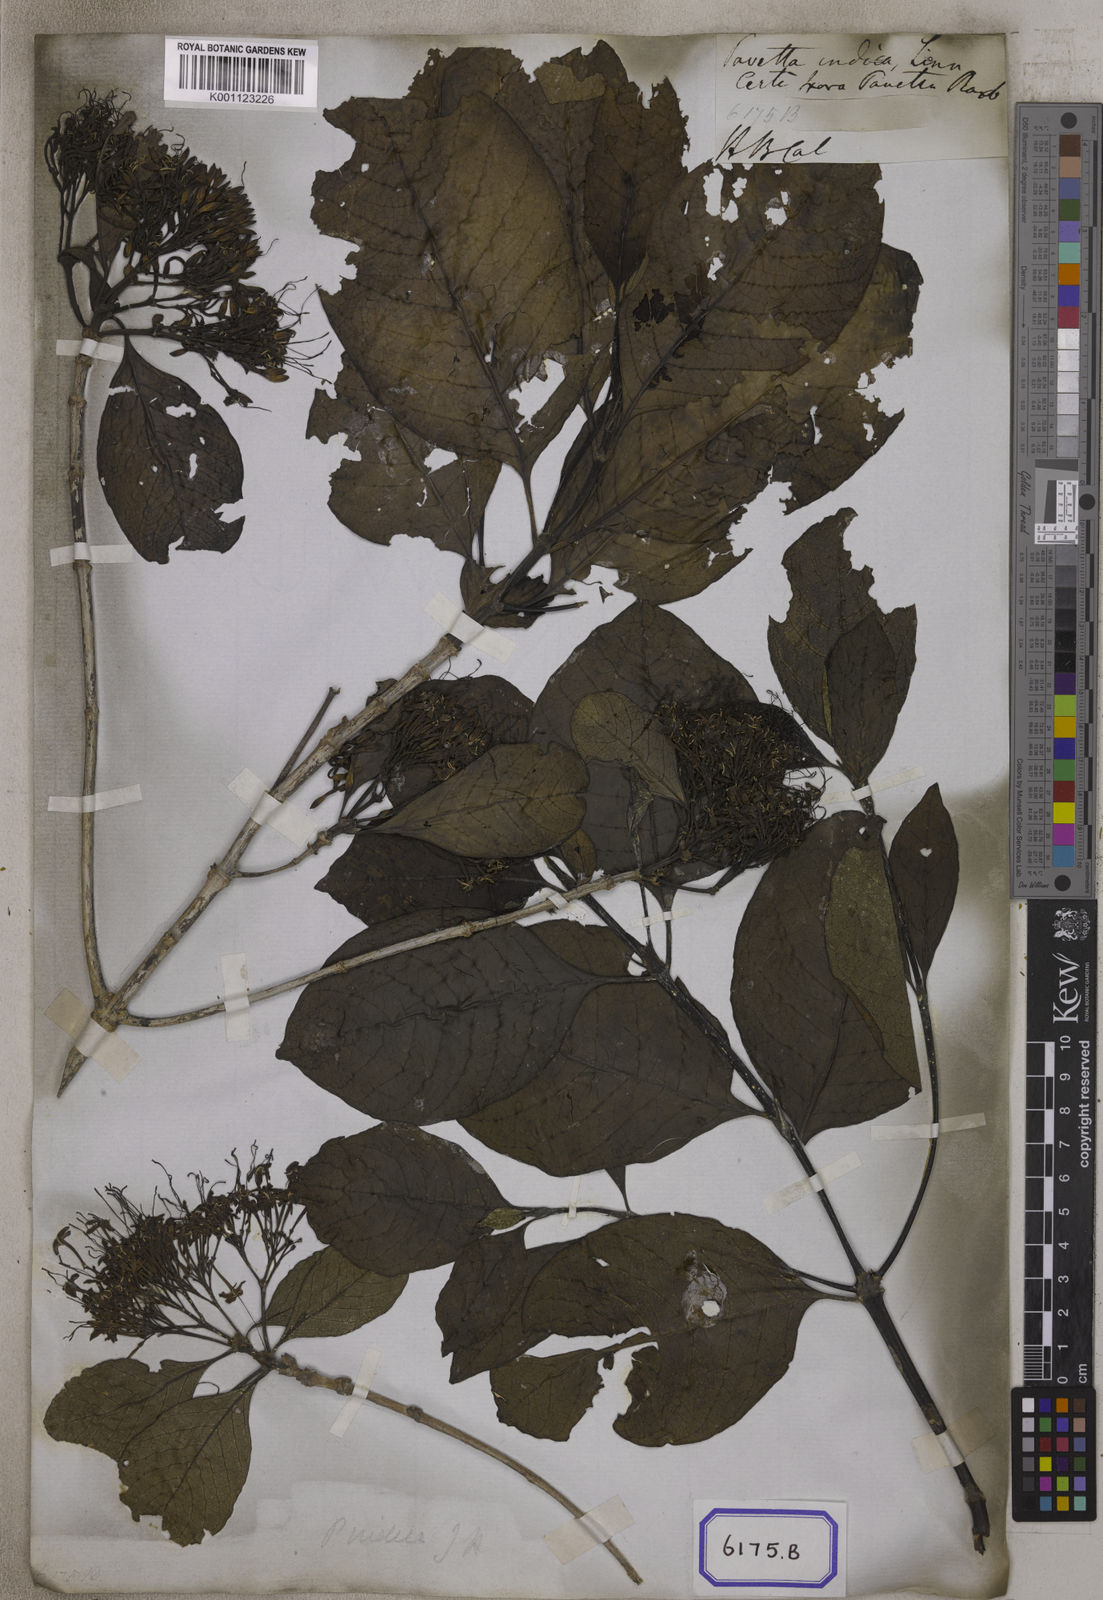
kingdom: Plantae
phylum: Tracheophyta
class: Magnoliopsida
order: Gentianales
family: Rubiaceae
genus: Pavetta
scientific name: Pavetta indica
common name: Indian pavetta
